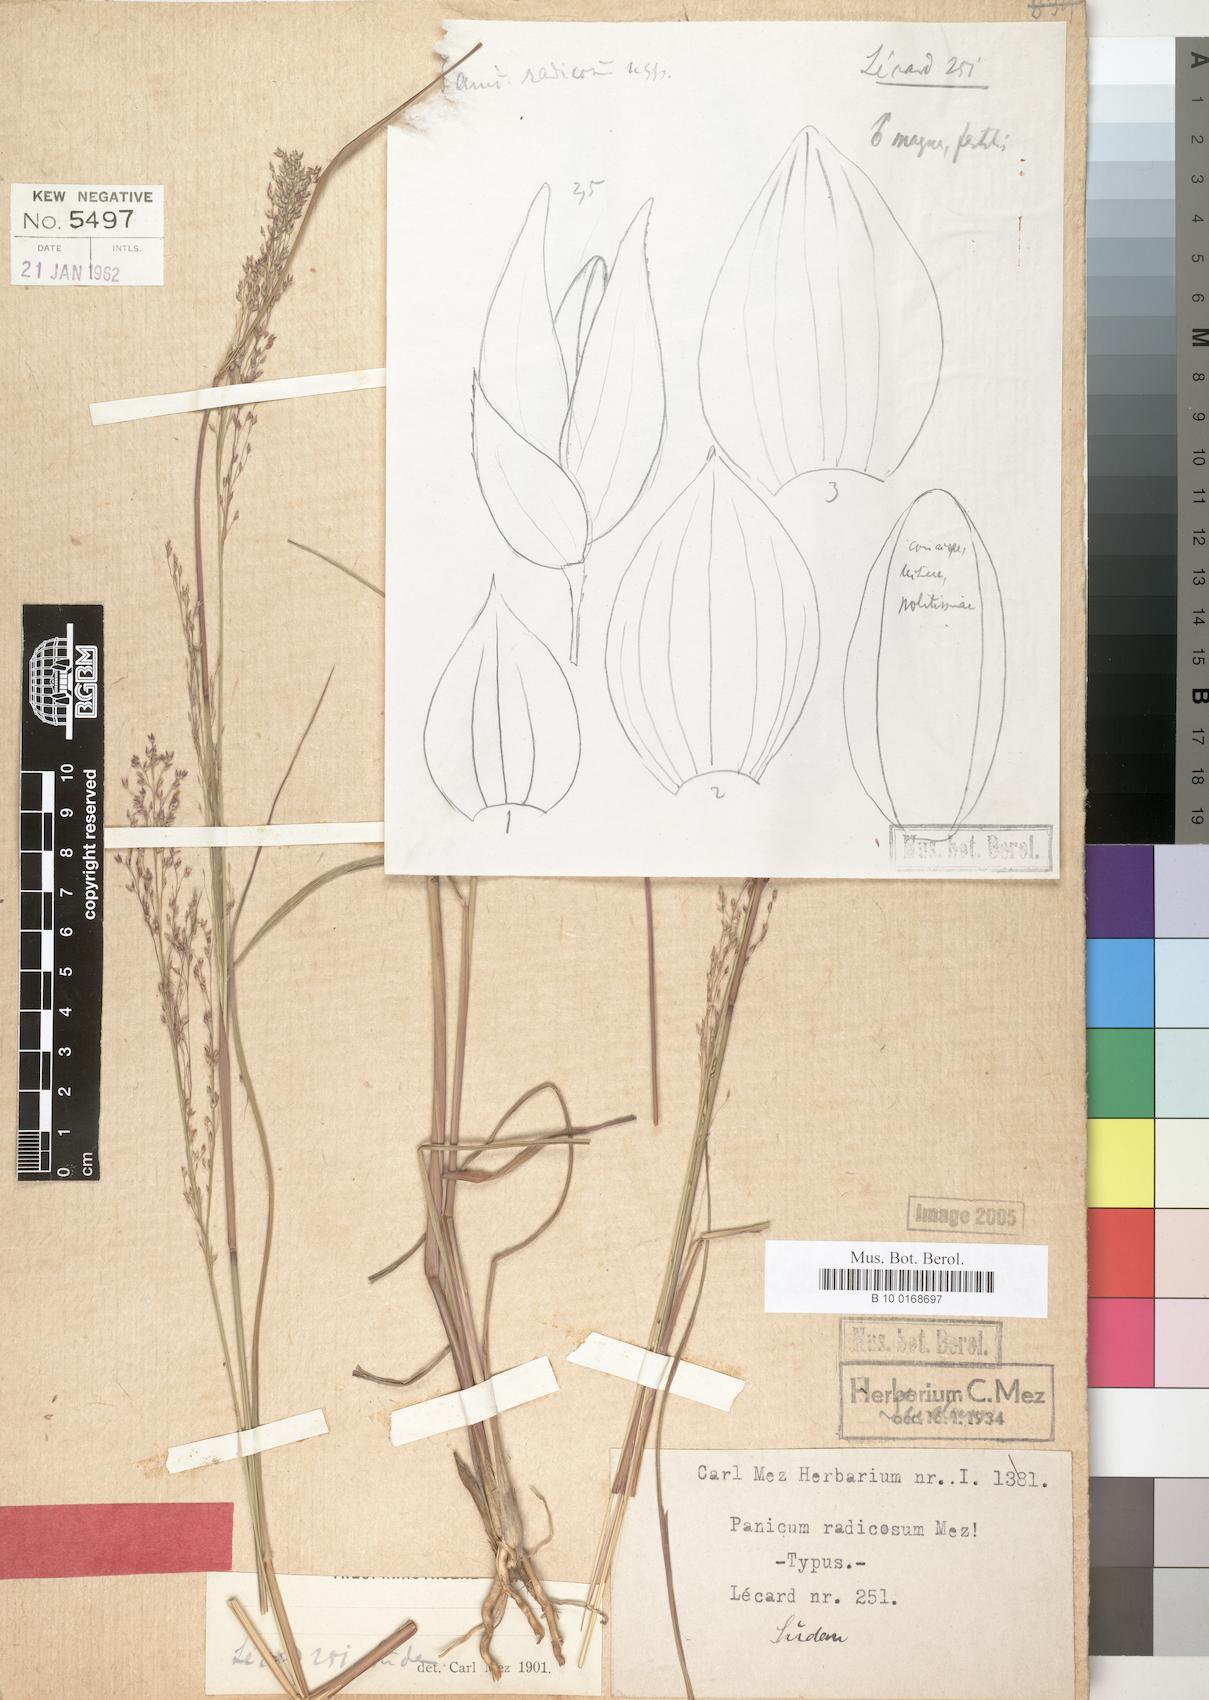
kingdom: Plantae
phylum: Tracheophyta
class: Liliopsida
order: Poales
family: Poaceae
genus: Panicum
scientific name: Panicum fluviicola
